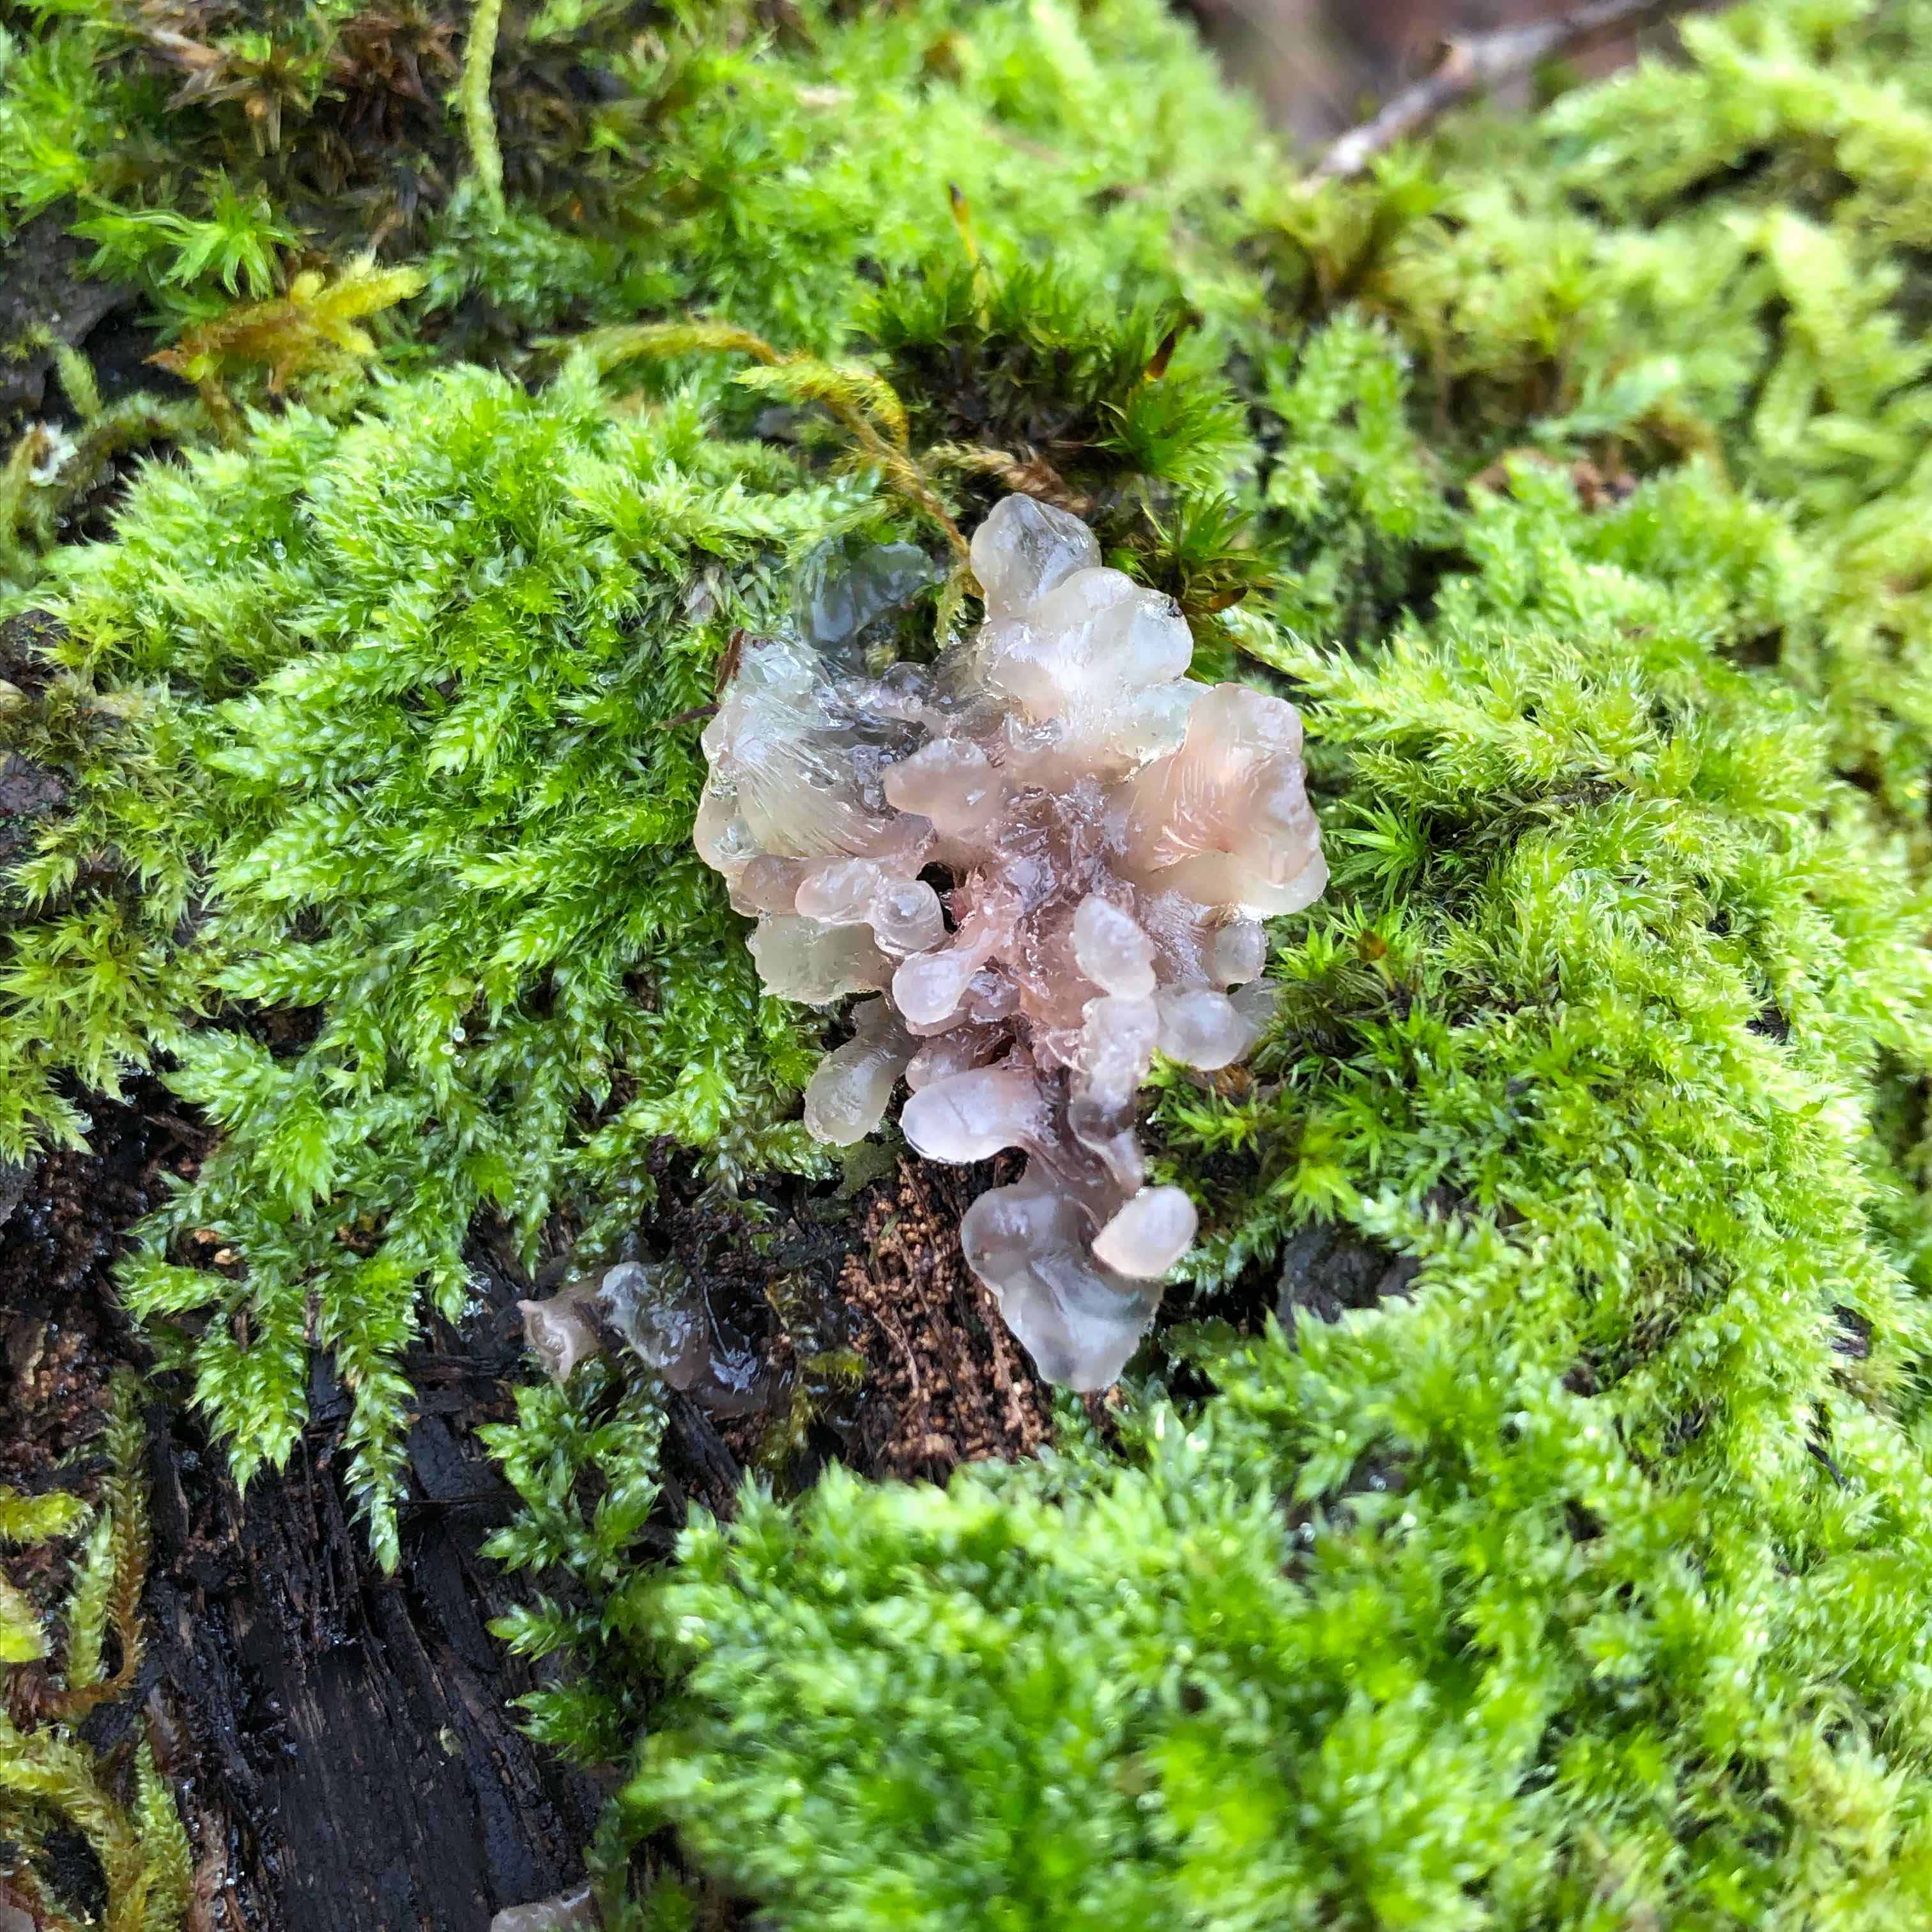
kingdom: Fungi
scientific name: Fungi
